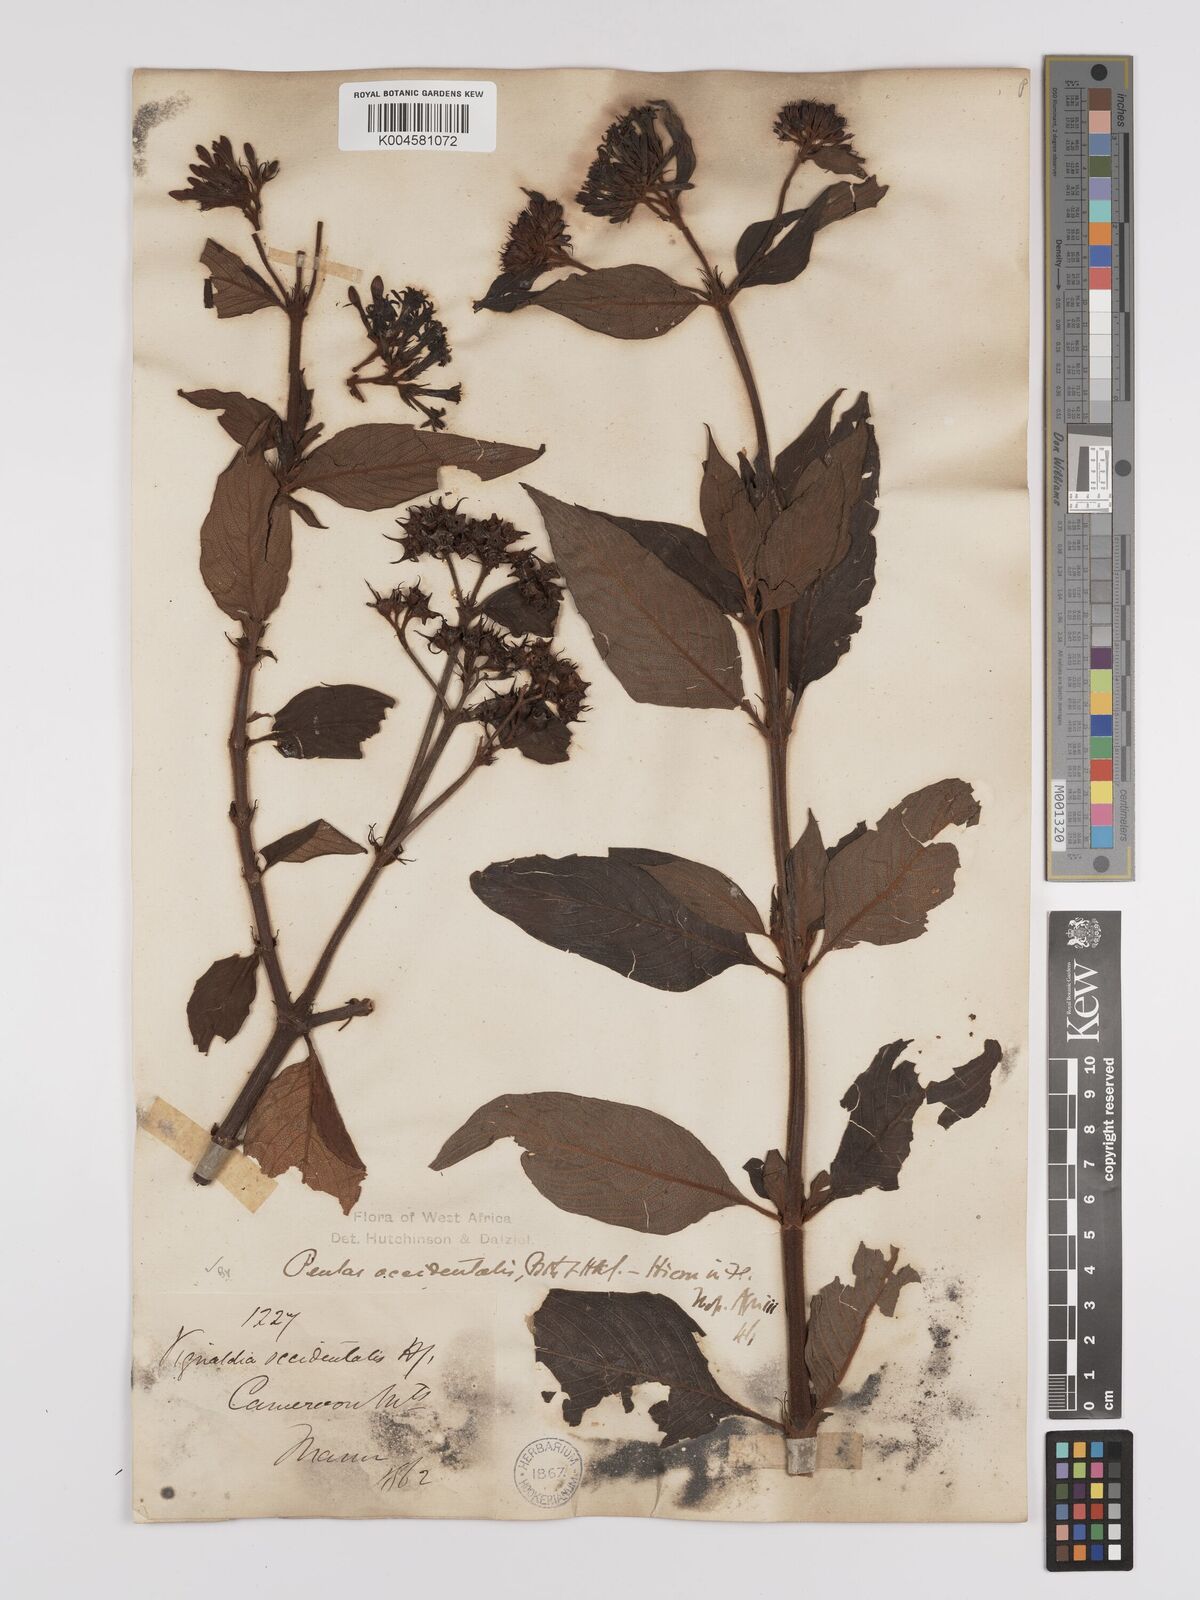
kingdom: Plantae
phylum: Tracheophyta
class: Magnoliopsida
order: Gentianales
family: Rubiaceae
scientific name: Rubiaceae
